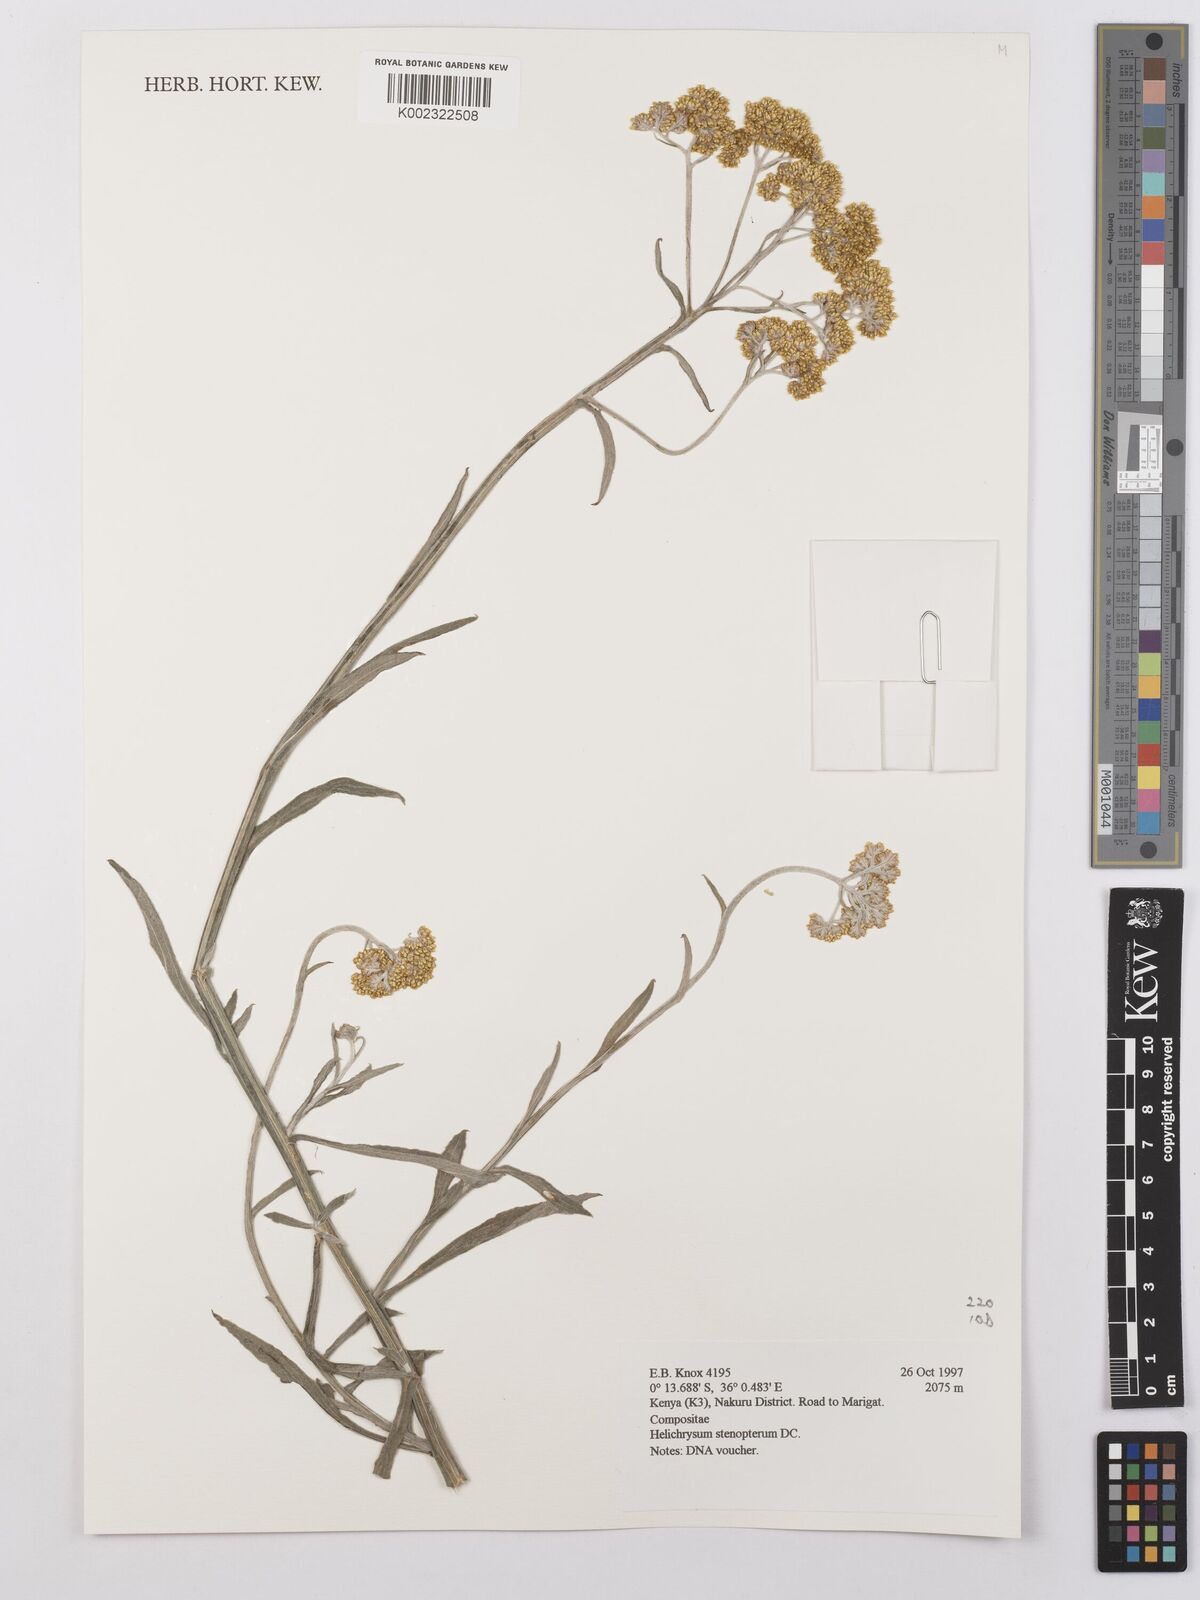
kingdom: Plantae
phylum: Tracheophyta
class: Magnoliopsida
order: Asterales
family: Asteraceae
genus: Helichrysum
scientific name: Helichrysum stenopterum
